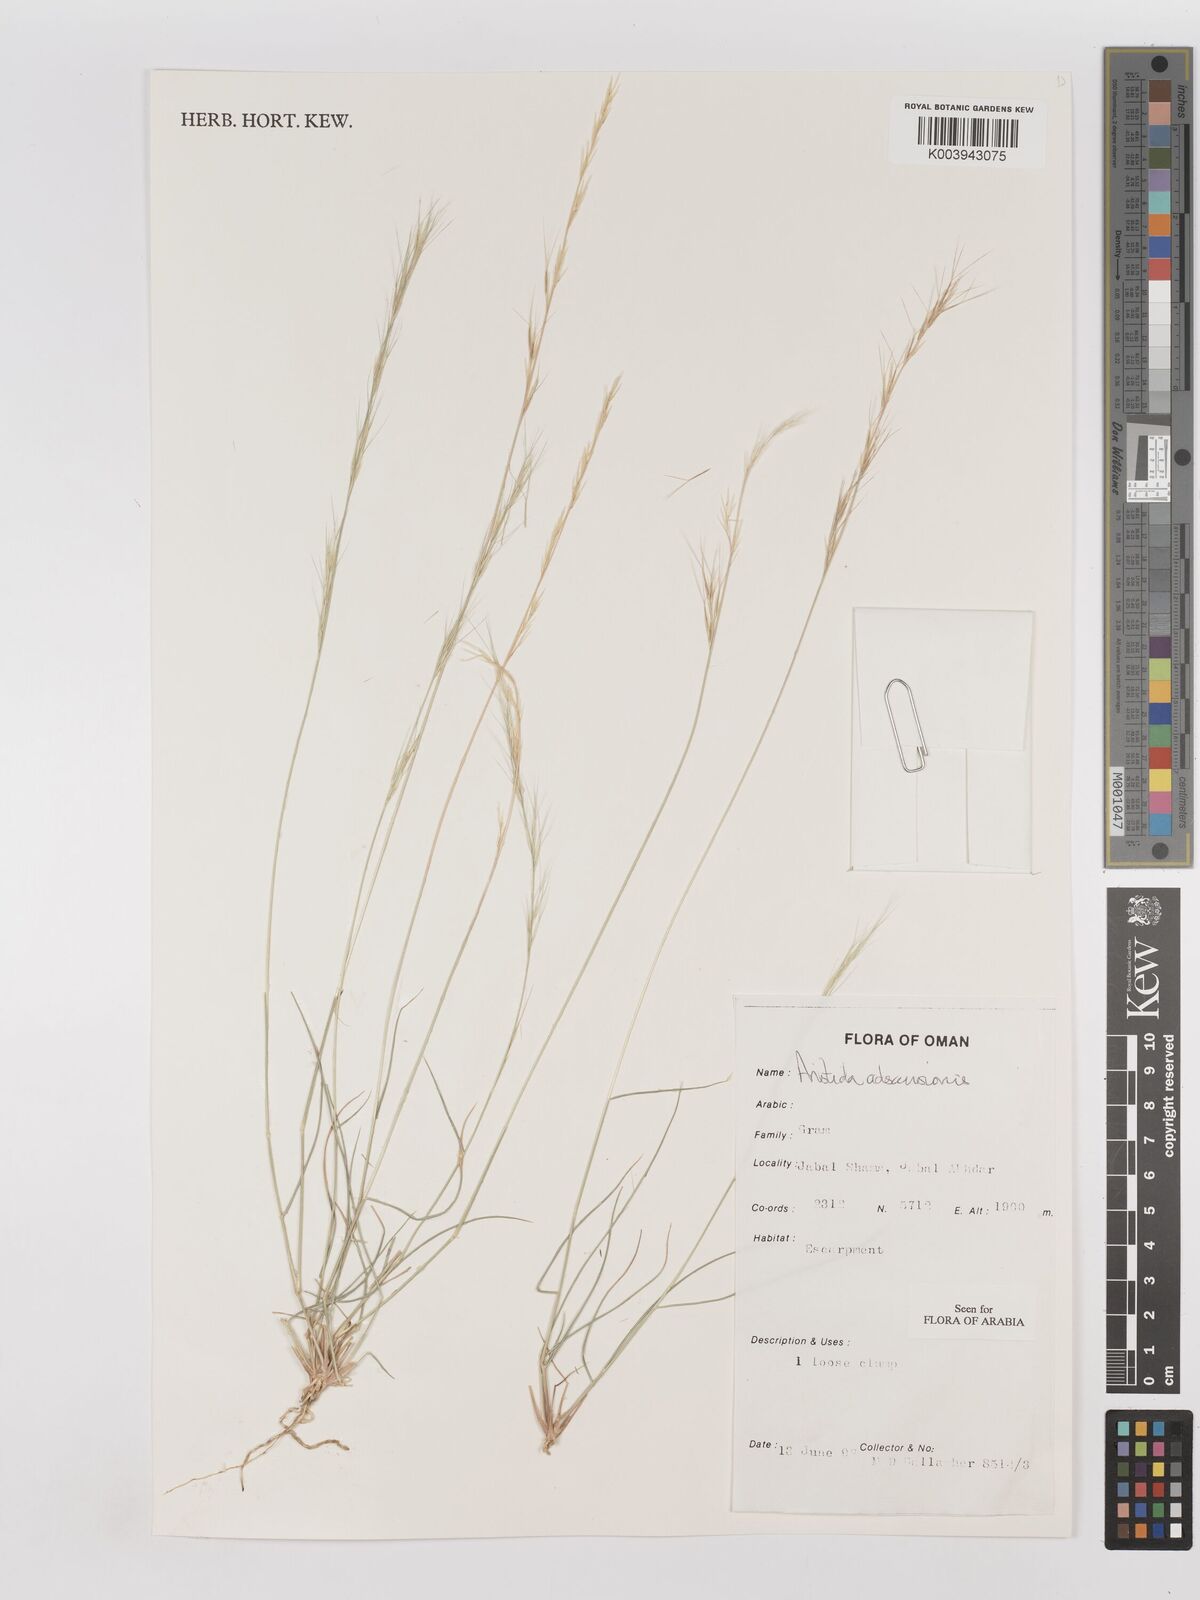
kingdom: Plantae
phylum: Tracheophyta
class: Liliopsida
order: Poales
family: Poaceae
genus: Aristida
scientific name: Aristida adscensionis
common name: Sixweeks threeawn
